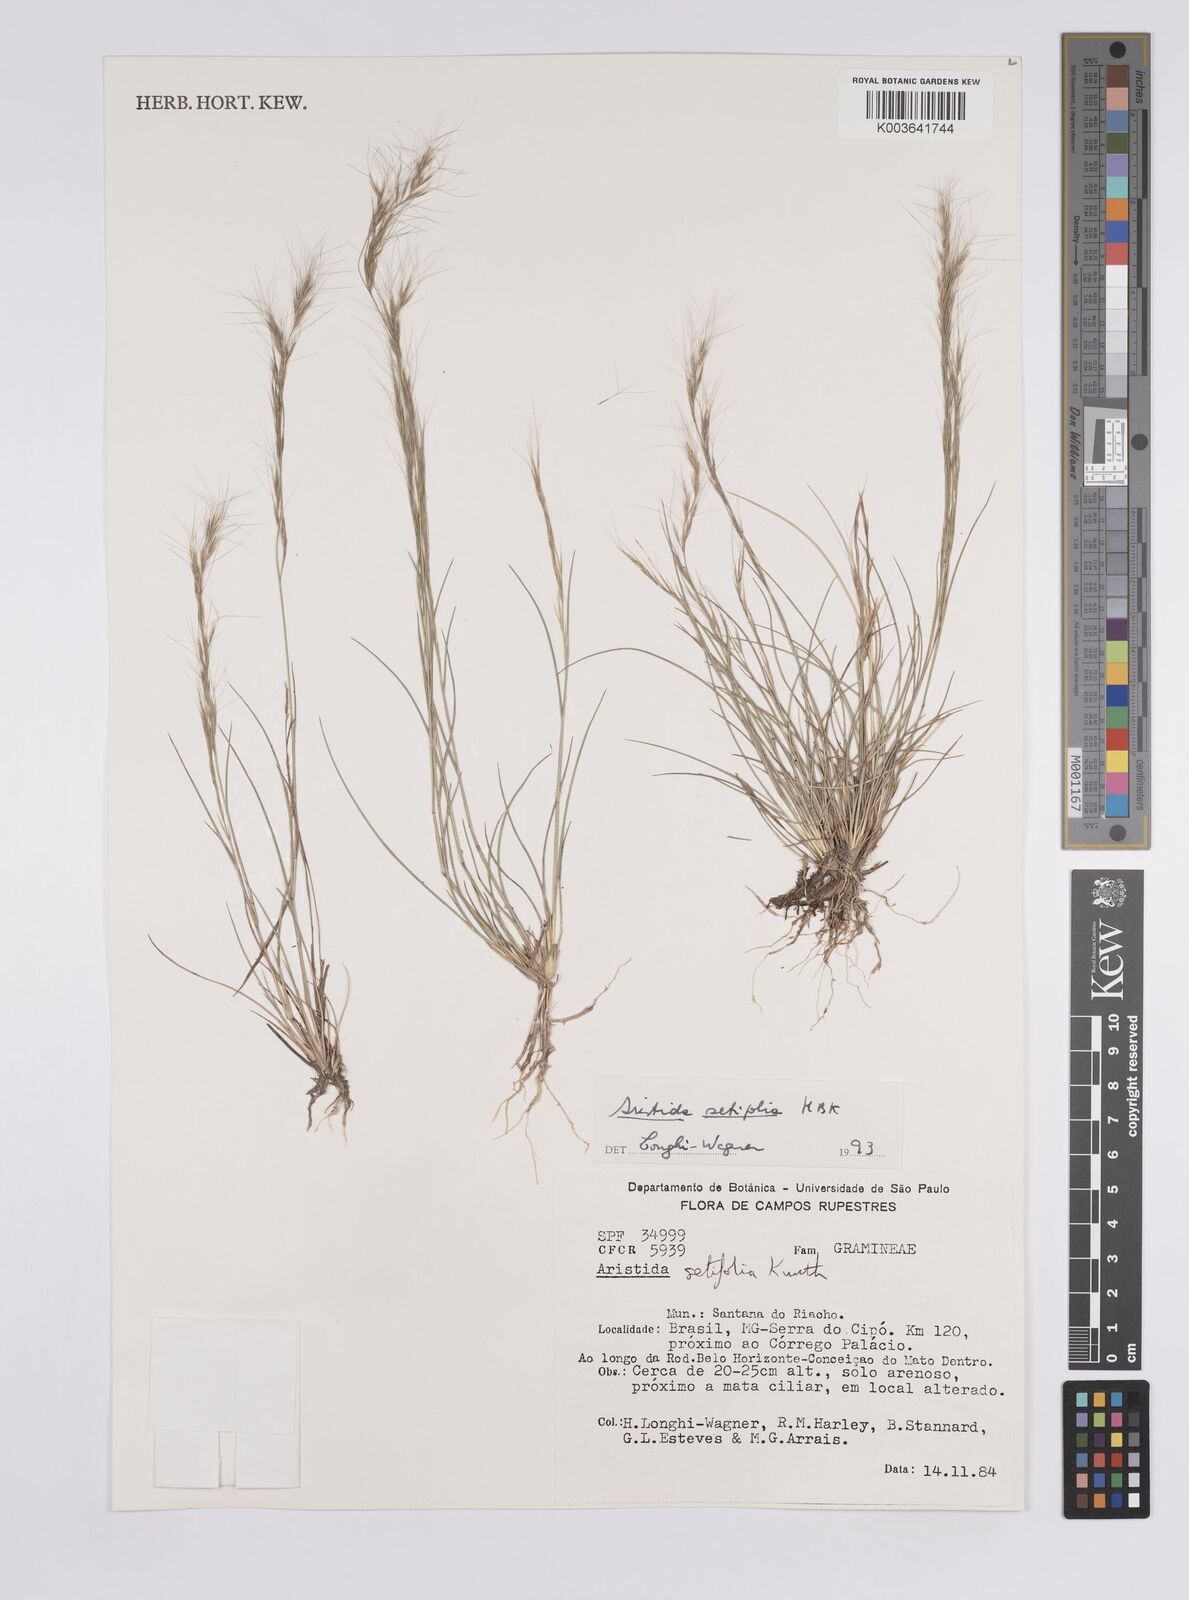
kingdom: Plantae
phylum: Tracheophyta
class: Liliopsida
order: Poales
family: Poaceae
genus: Aristida
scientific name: Aristida setifolia
